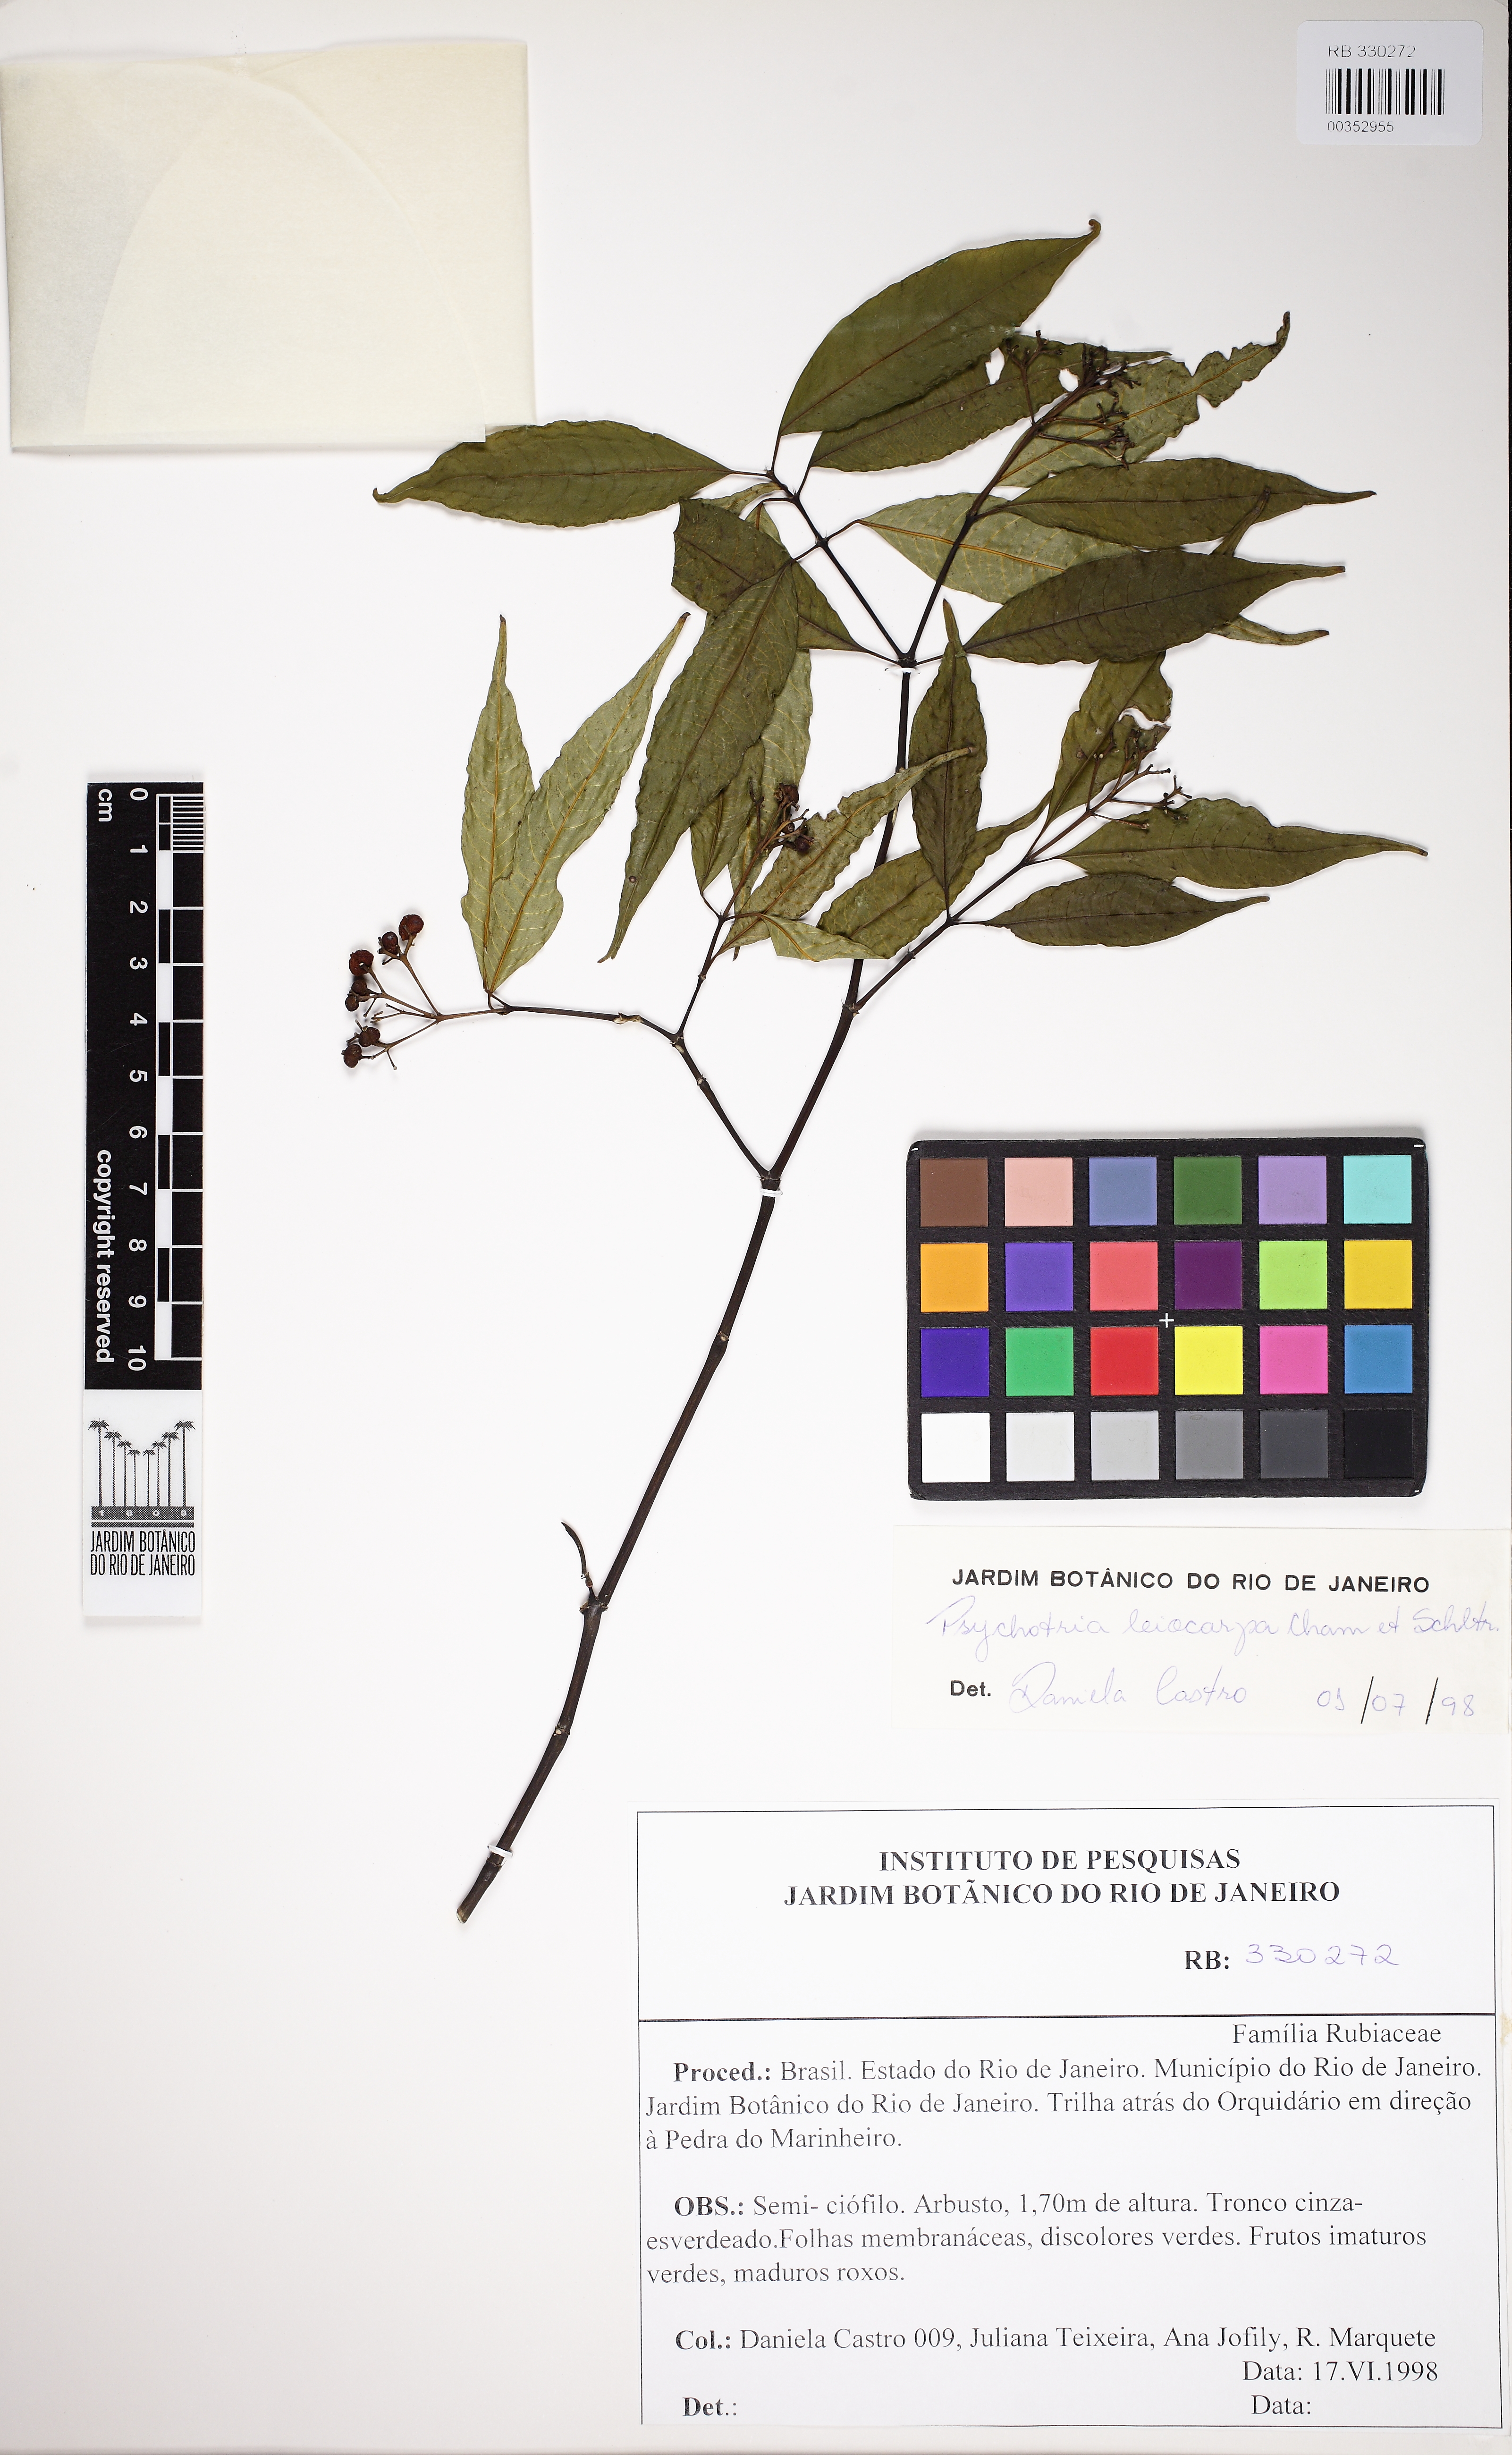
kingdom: Plantae
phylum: Tracheophyta
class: Magnoliopsida
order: Gentianales
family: Rubiaceae
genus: Psychotria
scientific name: Psychotria leiocarpa
